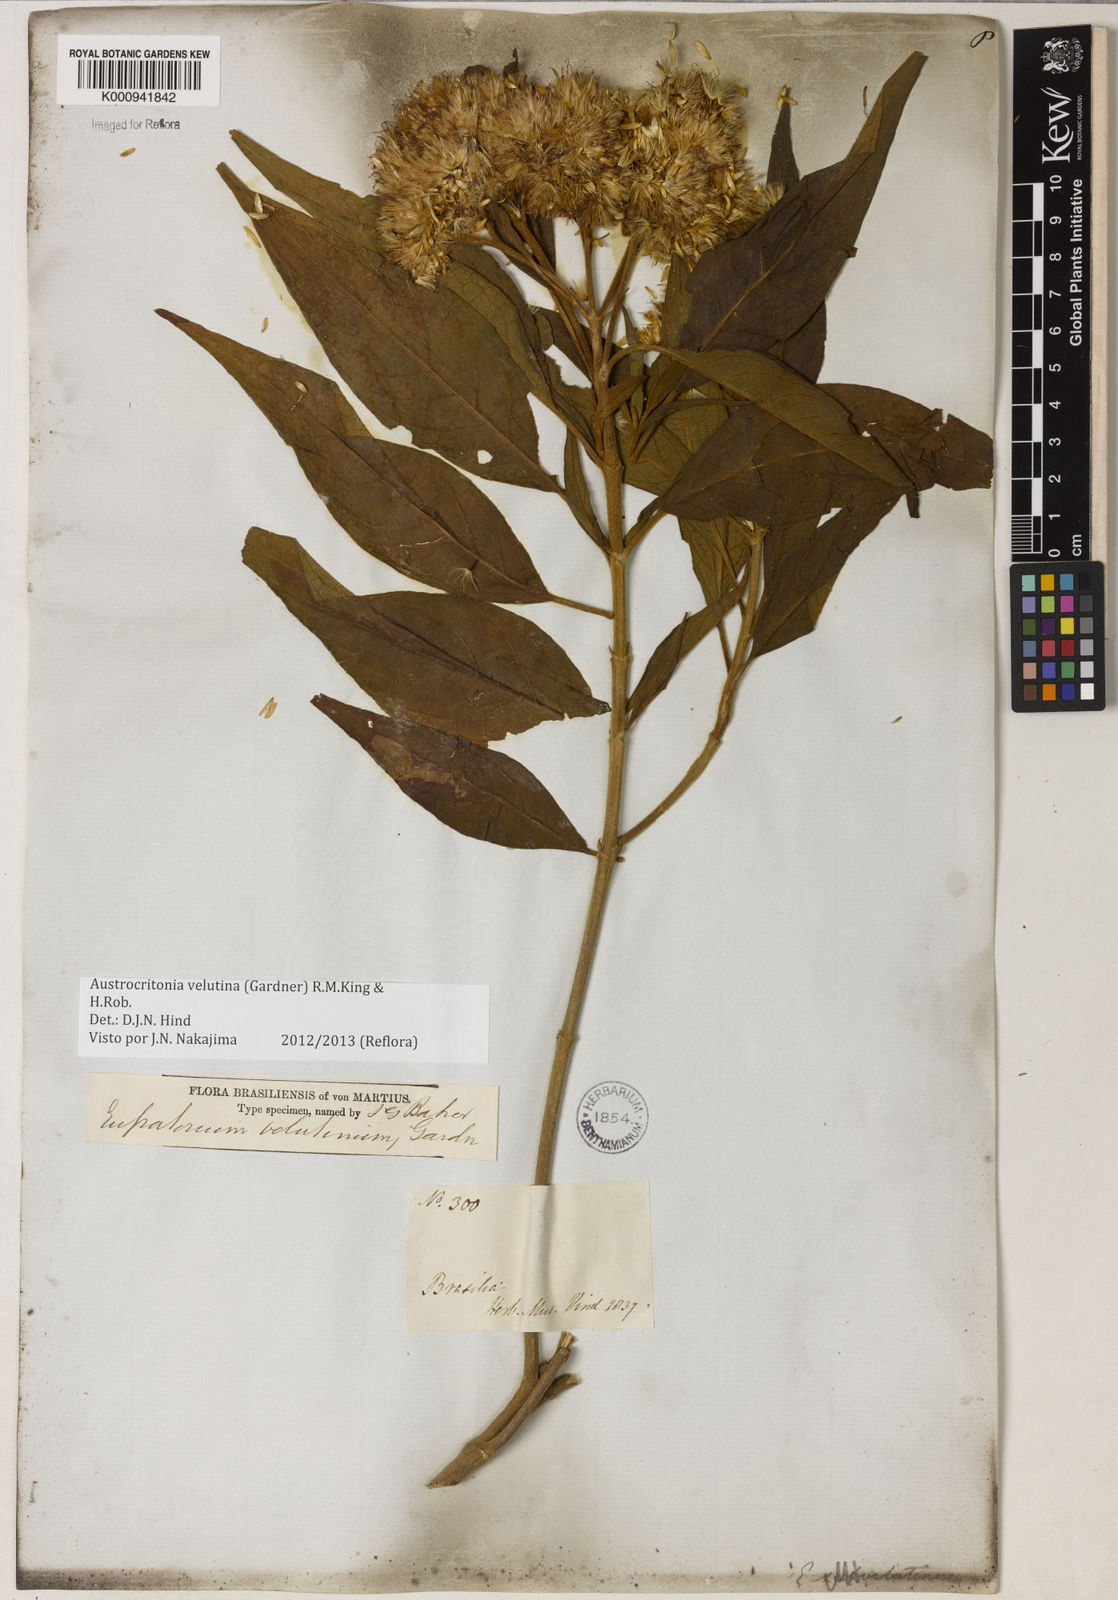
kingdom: Plantae
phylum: Tracheophyta
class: Magnoliopsida
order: Asterales
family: Asteraceae
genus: Austrocritonia
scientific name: Austrocritonia velutina
